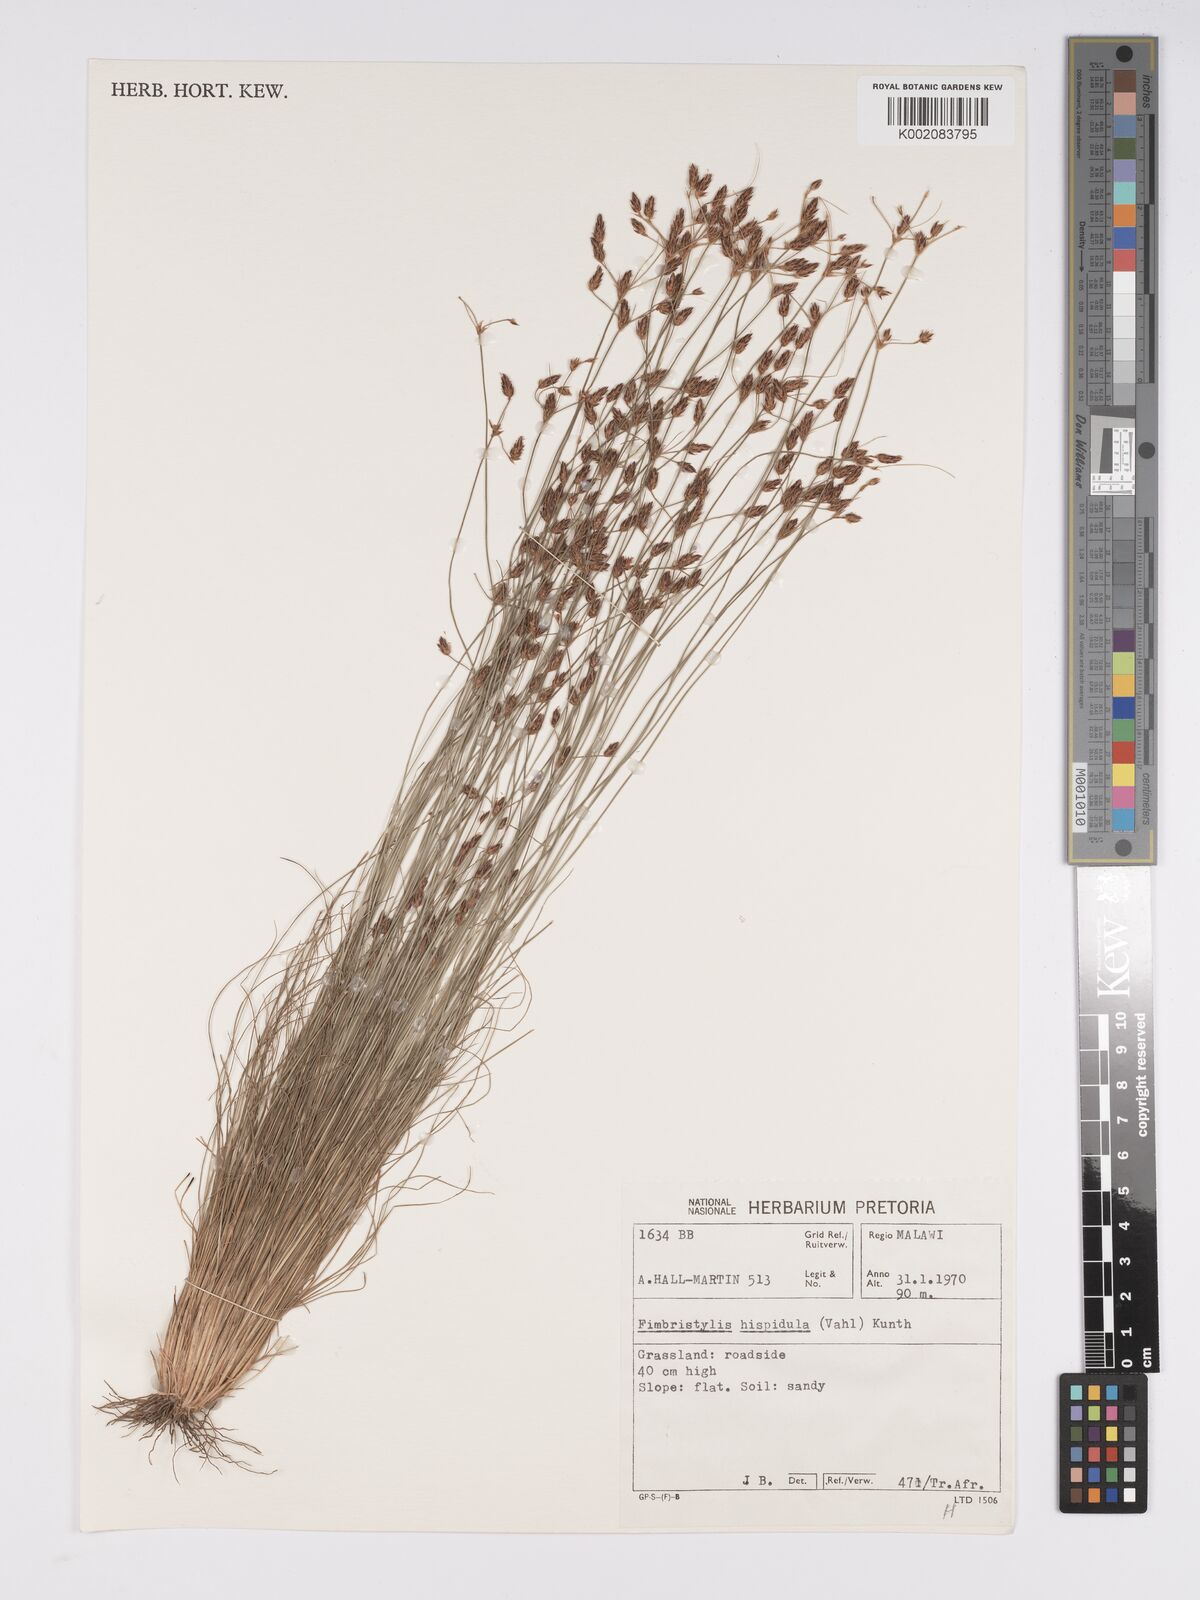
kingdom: Plantae
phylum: Tracheophyta
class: Liliopsida
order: Poales
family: Cyperaceae
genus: Bulbostylis
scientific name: Bulbostylis hispidula
